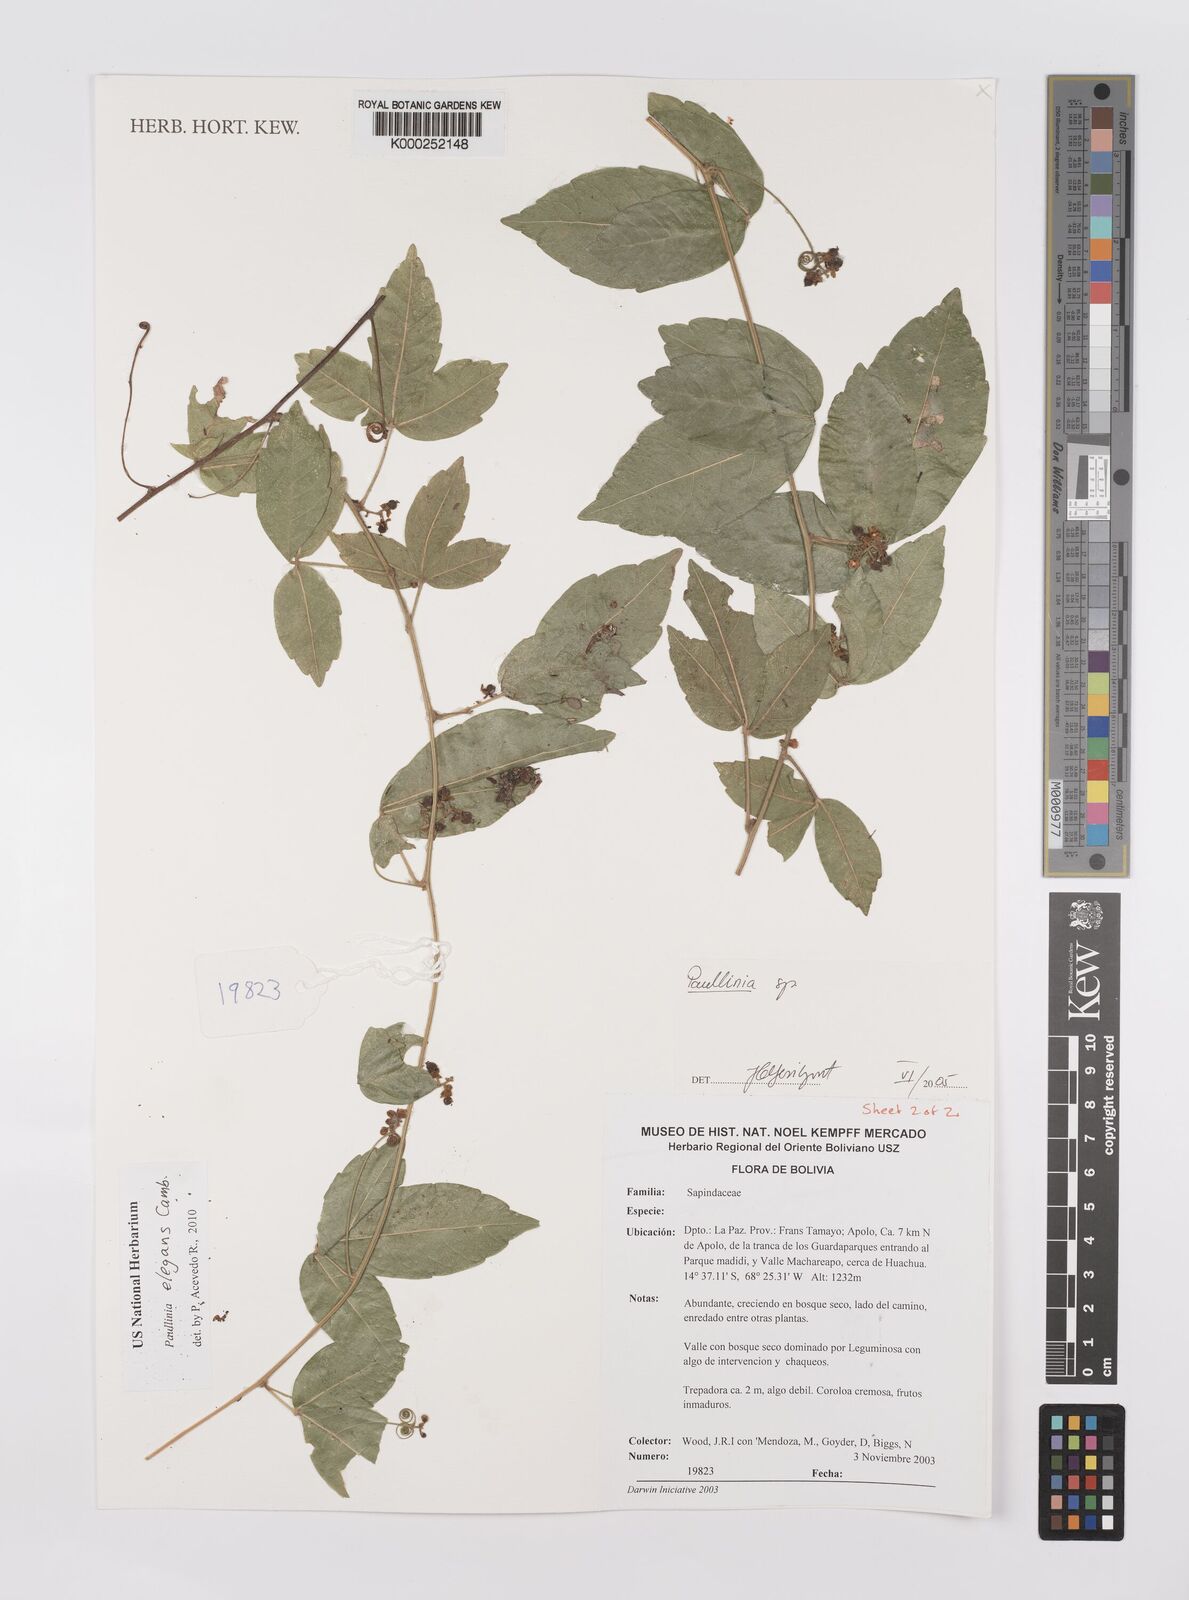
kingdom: Plantae
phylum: Tracheophyta
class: Magnoliopsida
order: Sapindales
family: Sapindaceae
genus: Paullinia
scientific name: Paullinia
